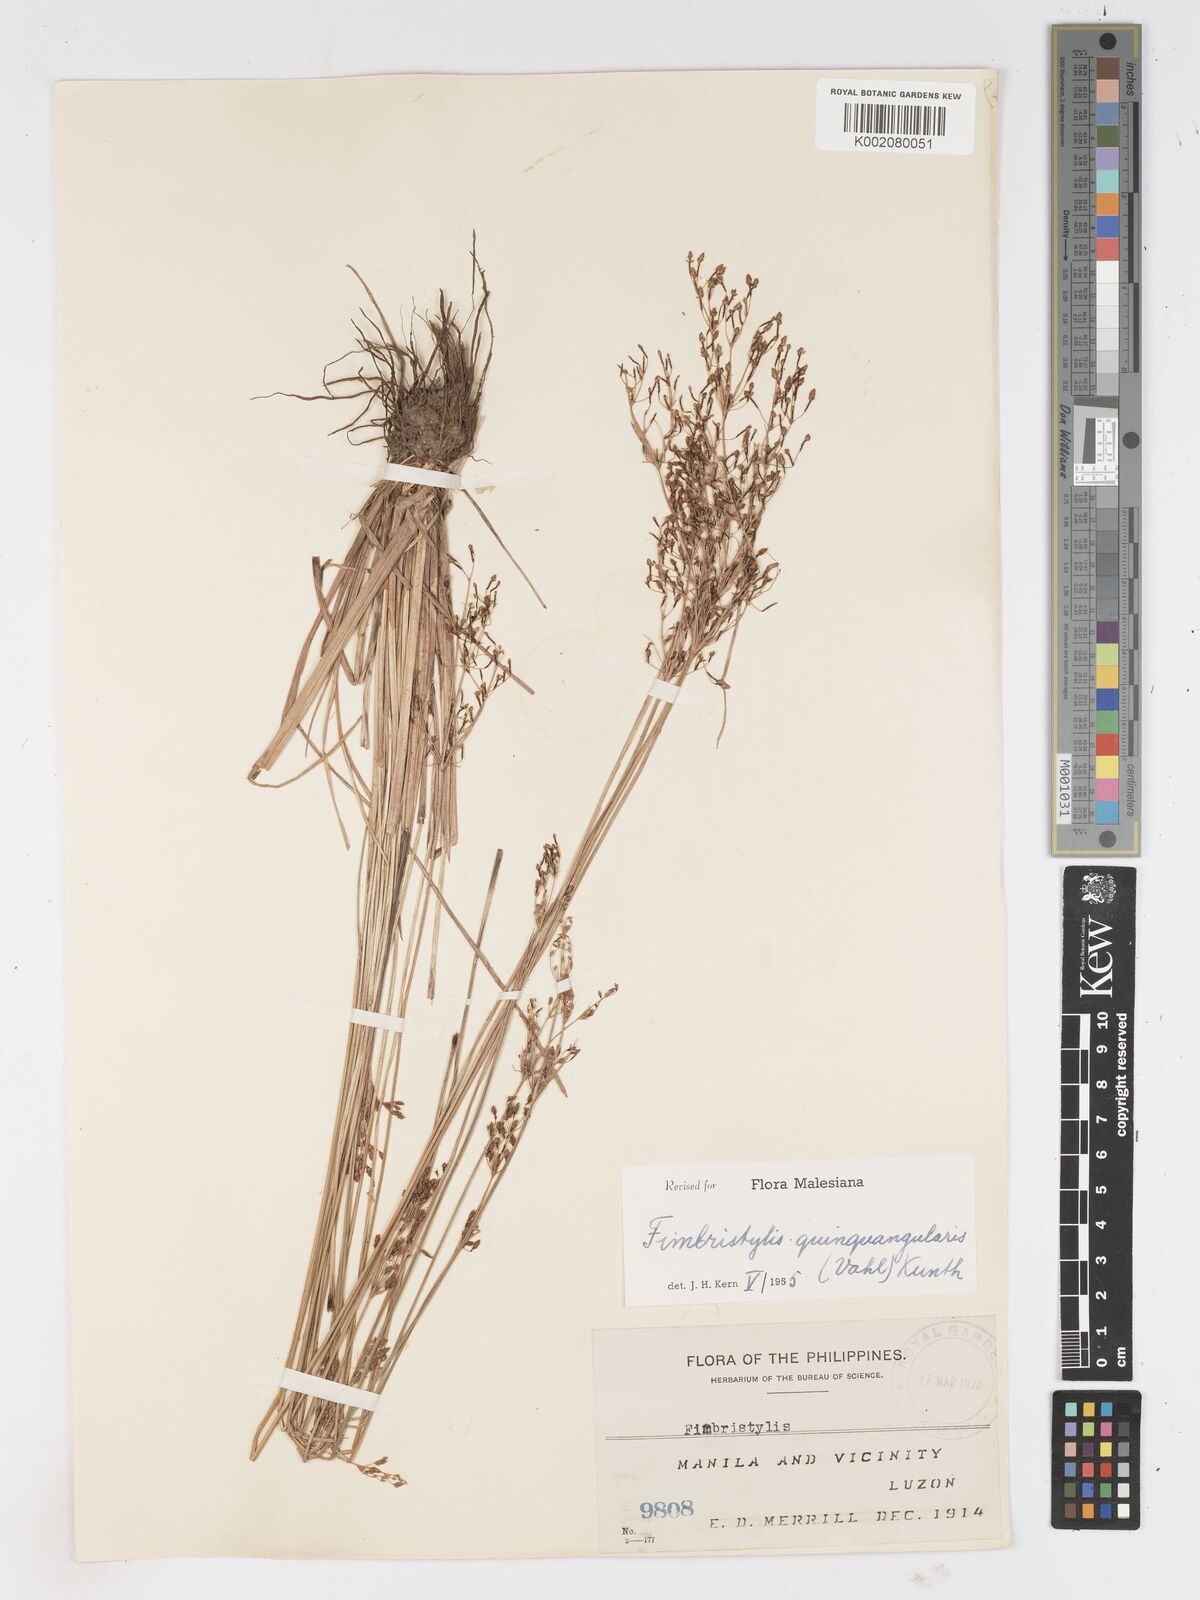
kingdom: Plantae
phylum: Tracheophyta
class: Liliopsida
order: Poales
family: Cyperaceae
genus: Fimbristylis
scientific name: Fimbristylis quinquangularis
